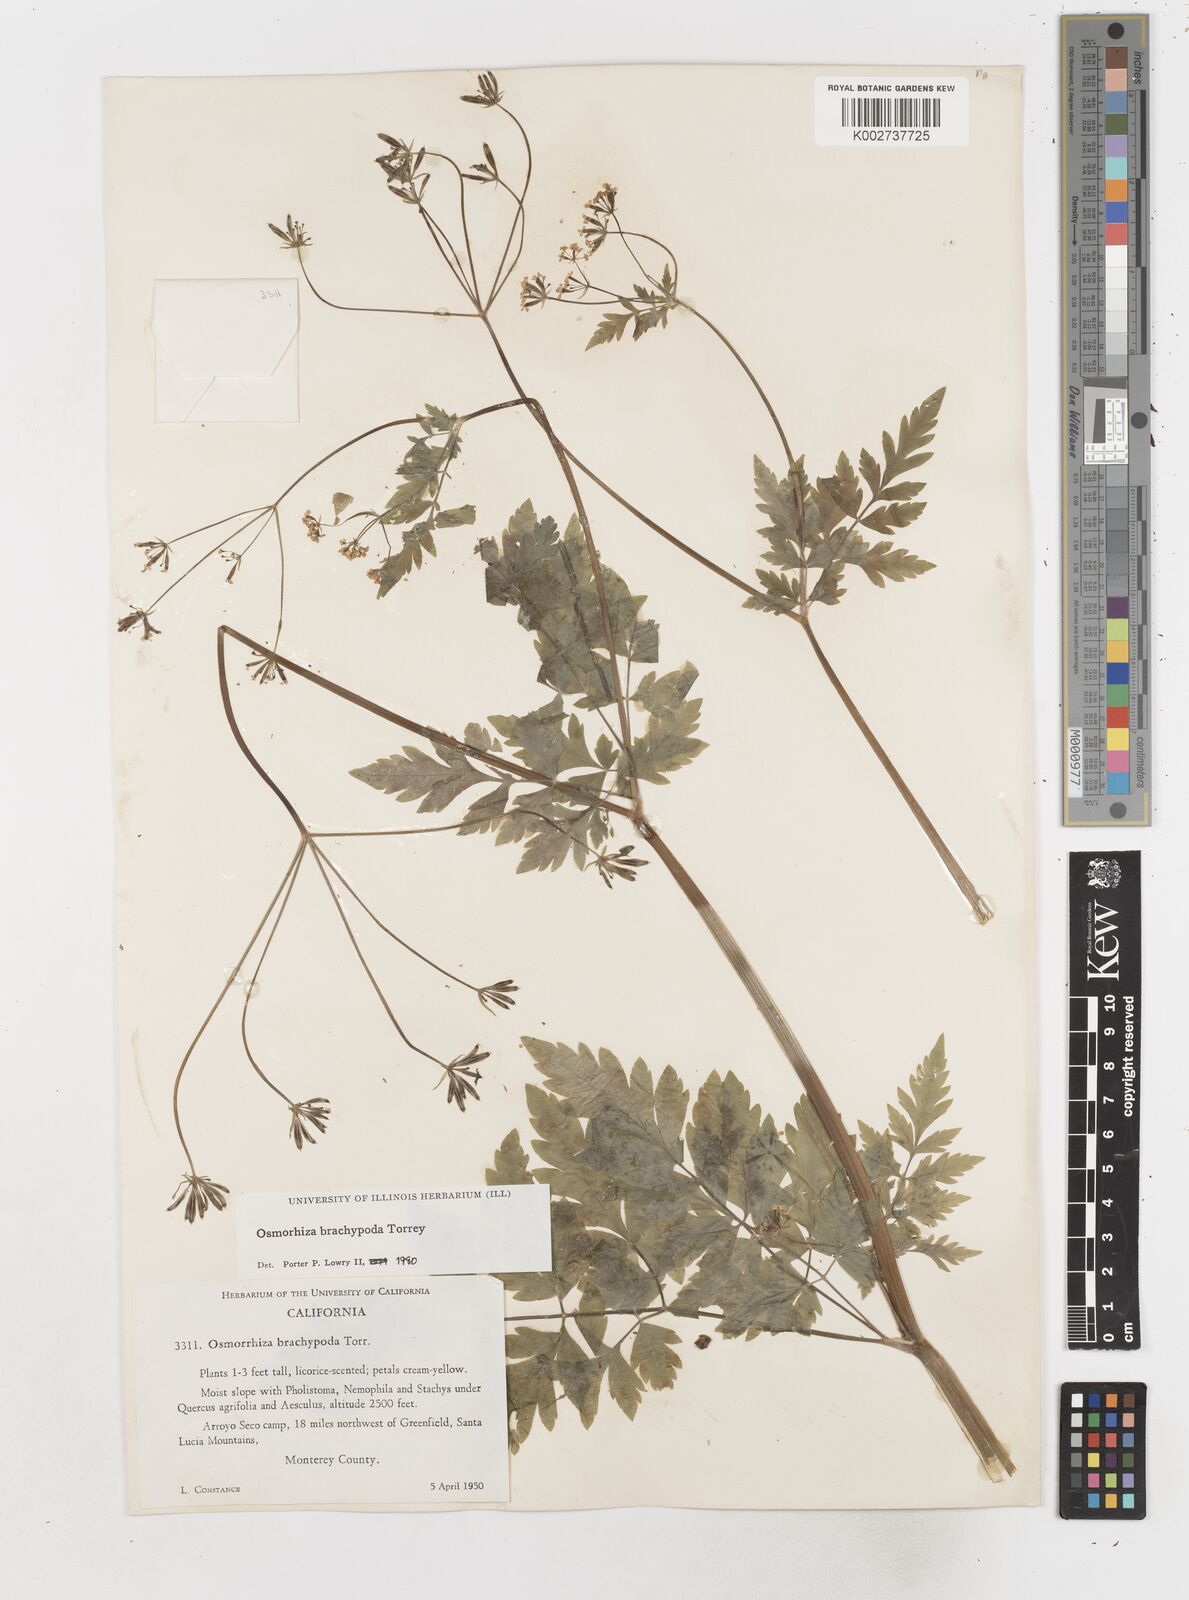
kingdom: Plantae
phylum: Tracheophyta
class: Magnoliopsida
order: Apiales
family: Apiaceae
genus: Osmorhiza
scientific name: Osmorhiza brachypoda
